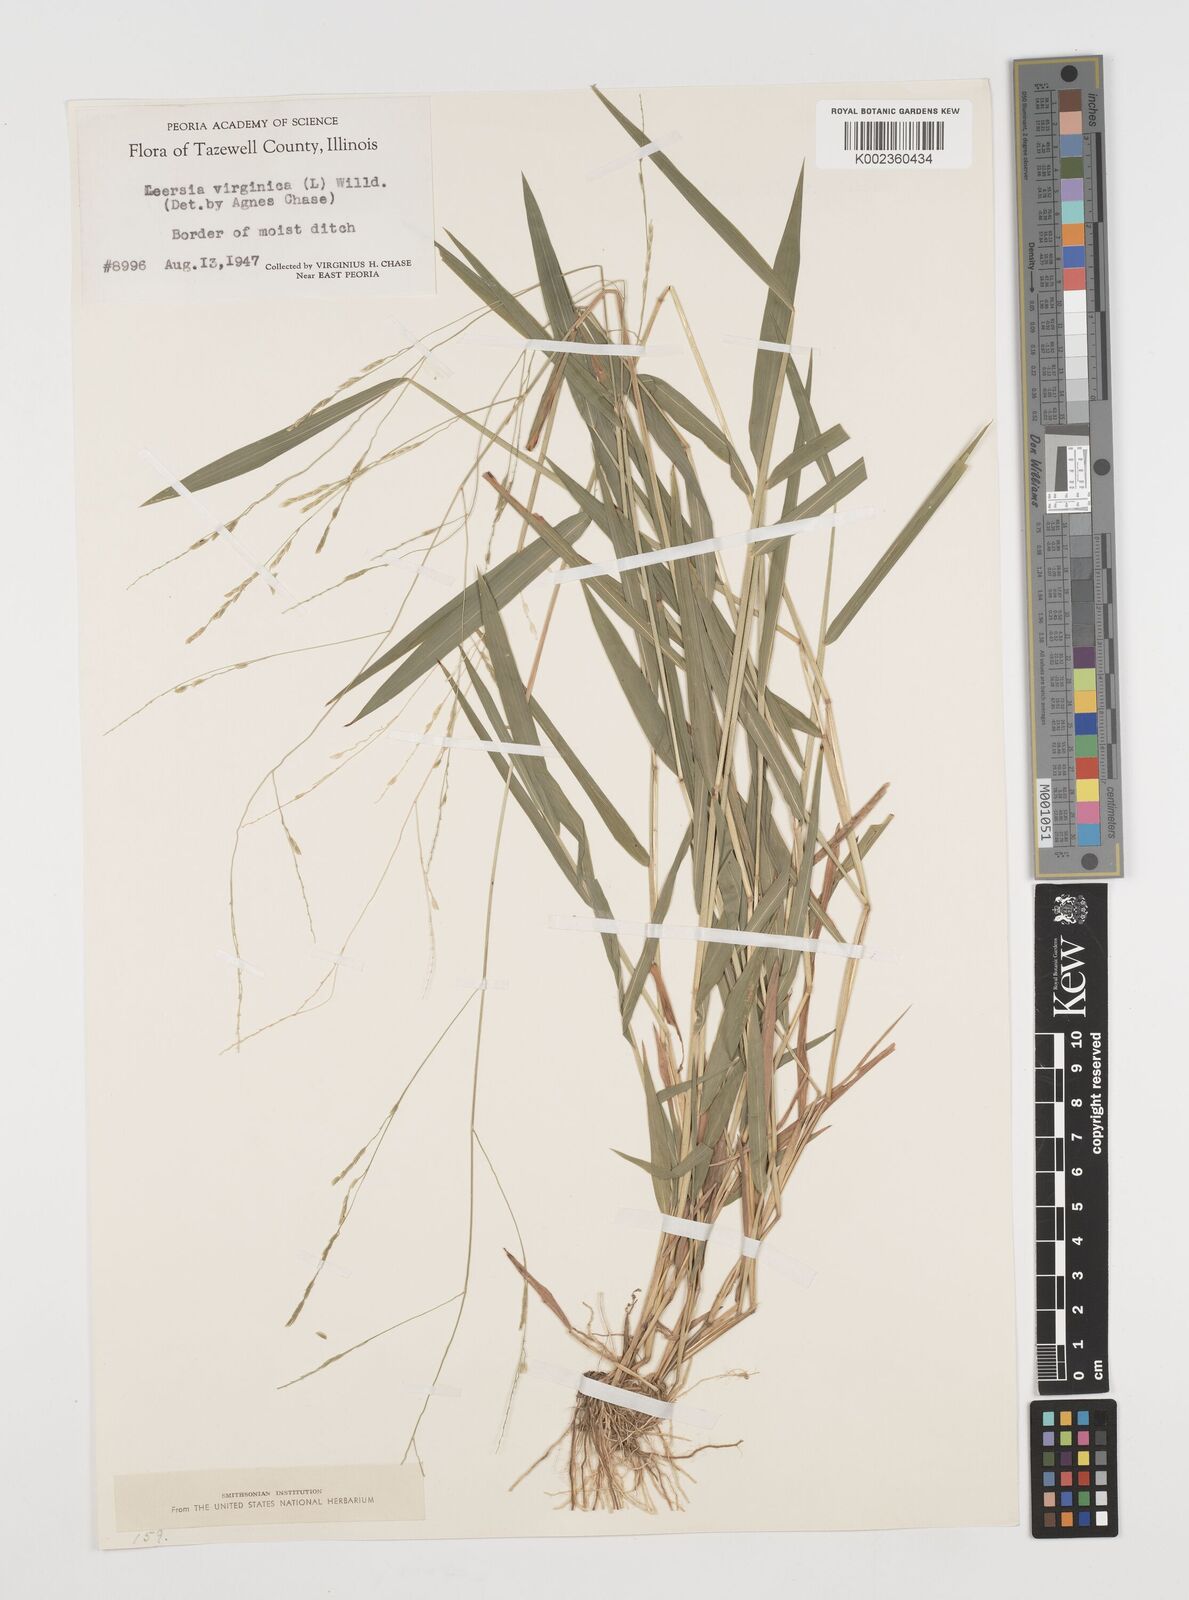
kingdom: Plantae
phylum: Tracheophyta
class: Liliopsida
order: Poales
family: Poaceae
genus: Leersia
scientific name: Leersia virginica
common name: White cutgrass
